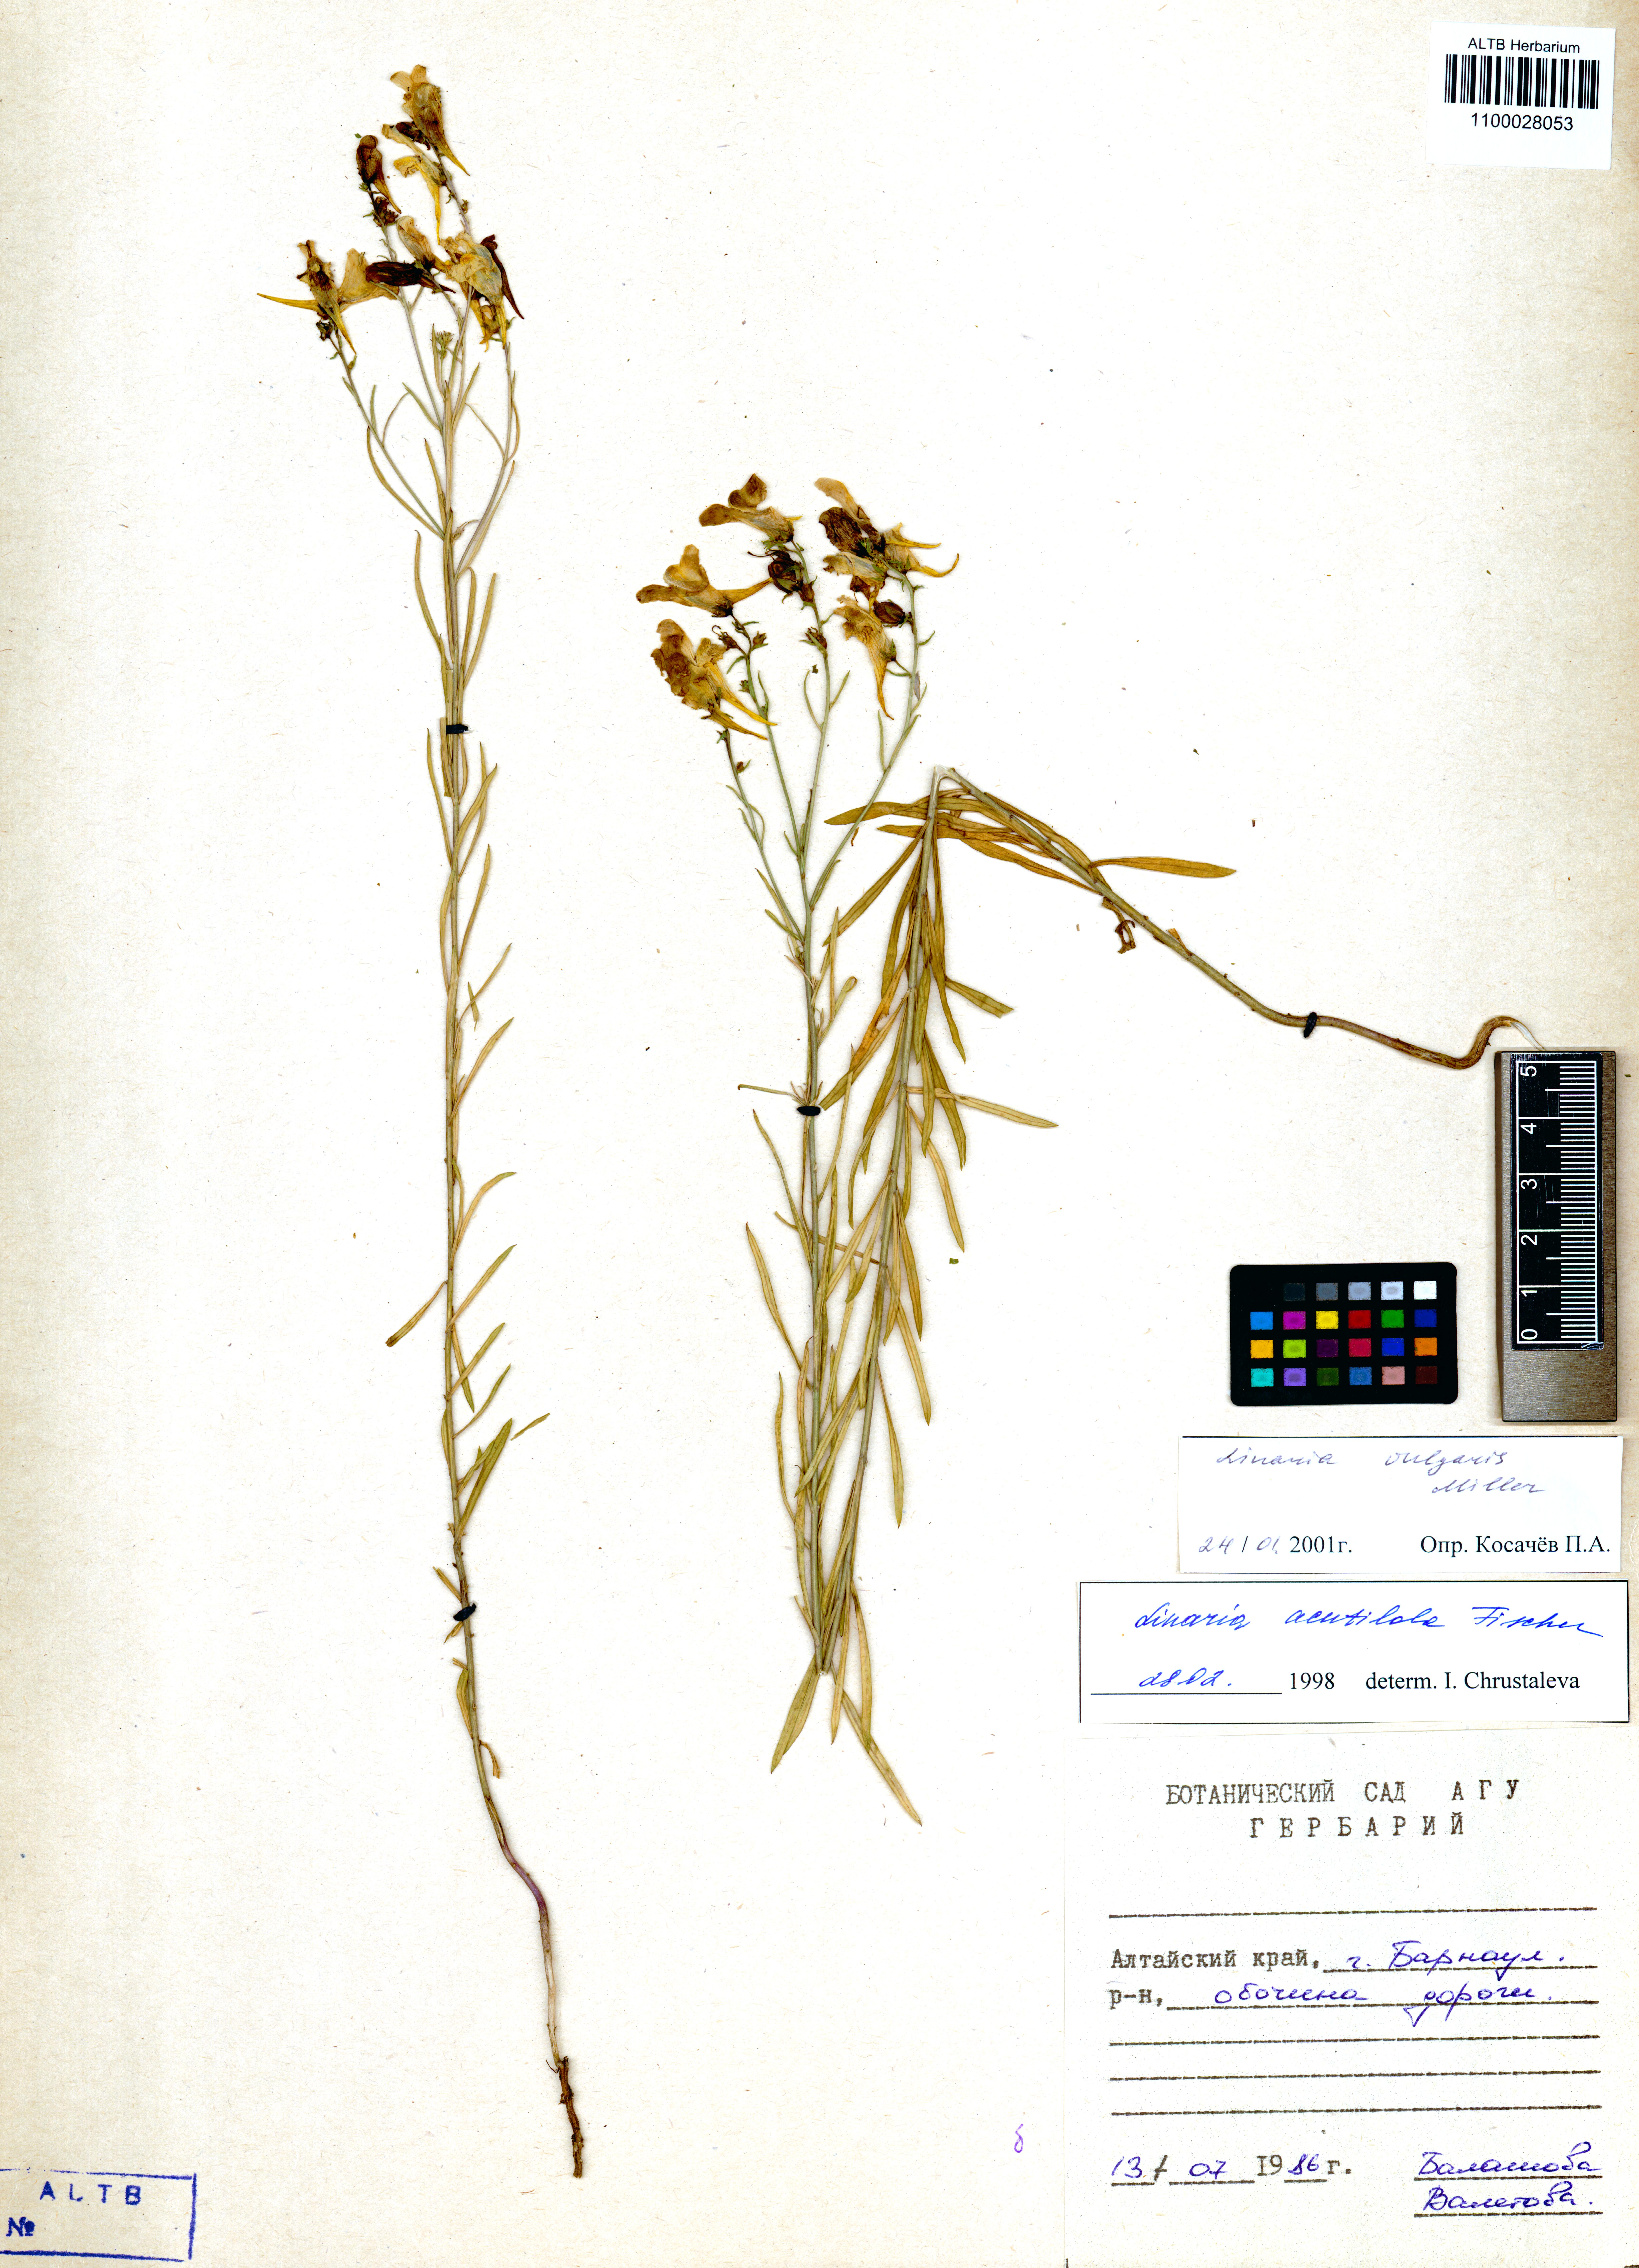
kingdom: Plantae
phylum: Tracheophyta
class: Magnoliopsida
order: Lamiales
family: Plantaginaceae
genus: Linaria
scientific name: Linaria vulgaris
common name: Butter and eggs
